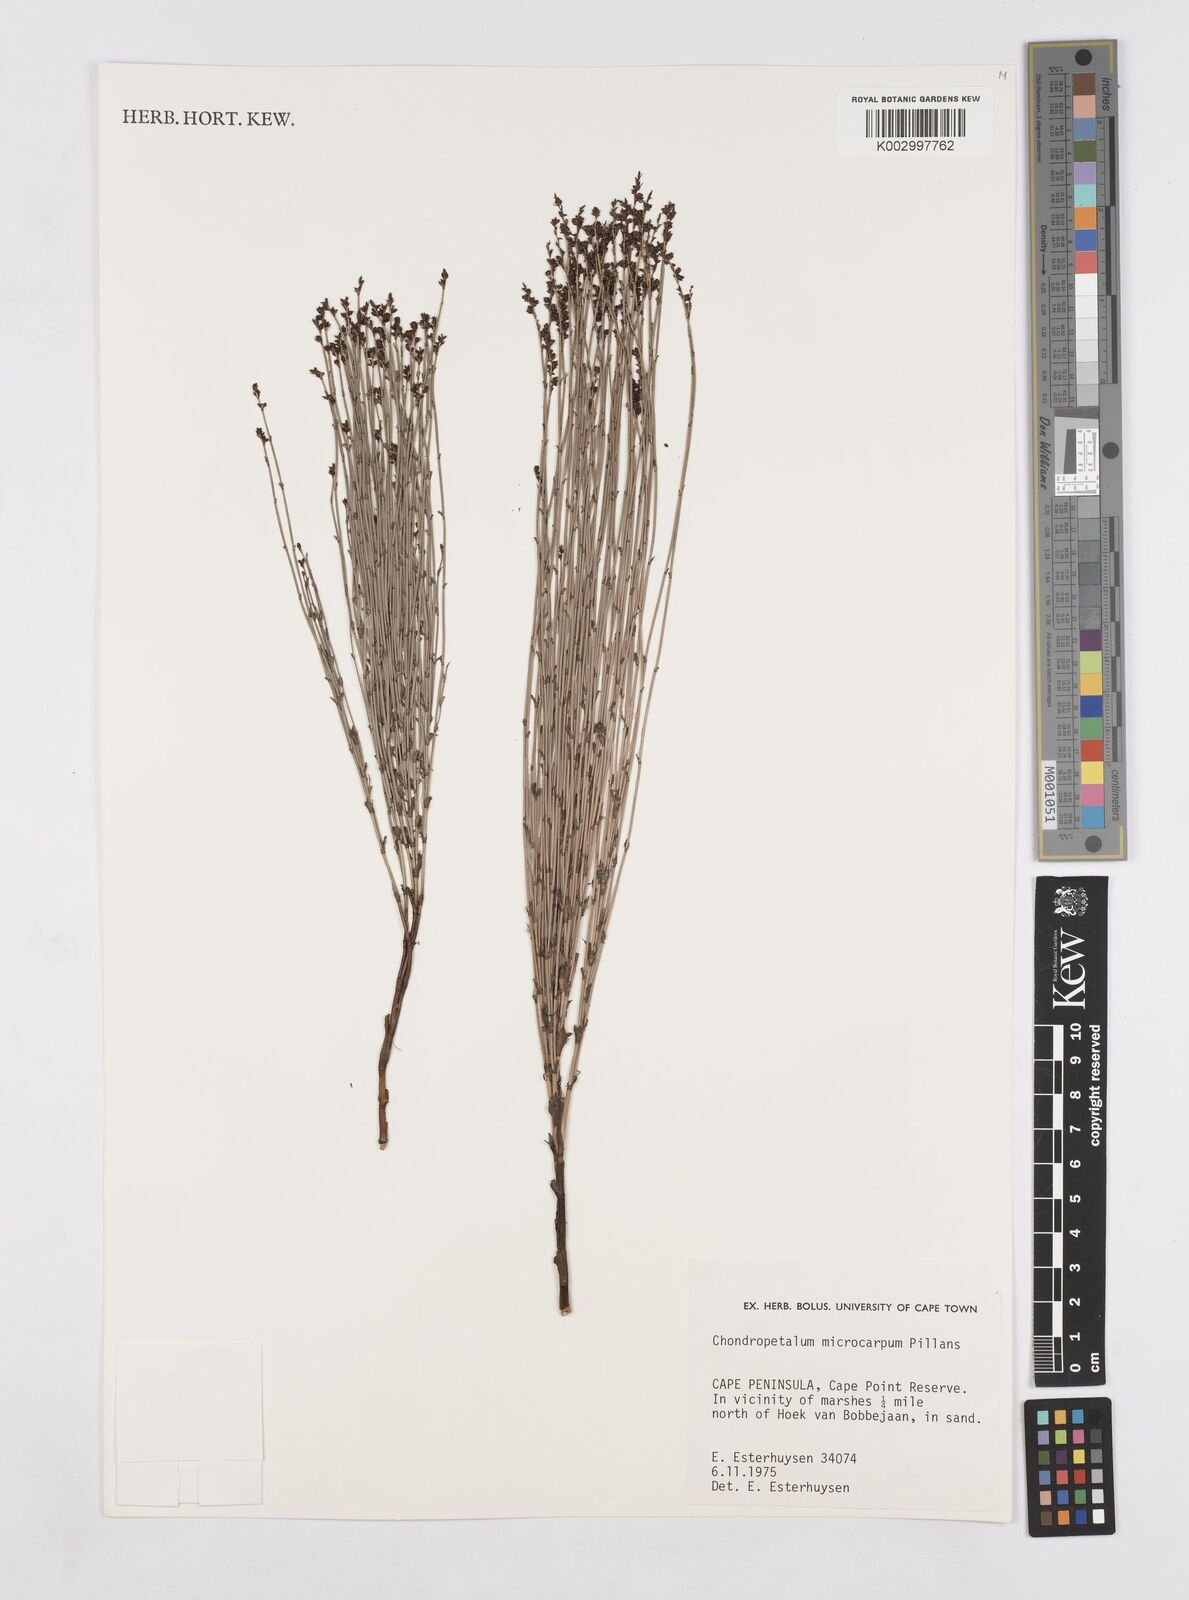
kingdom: Plantae
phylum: Tracheophyta
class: Liliopsida
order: Poales
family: Restionaceae
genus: Elegia
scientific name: Elegia juncea
